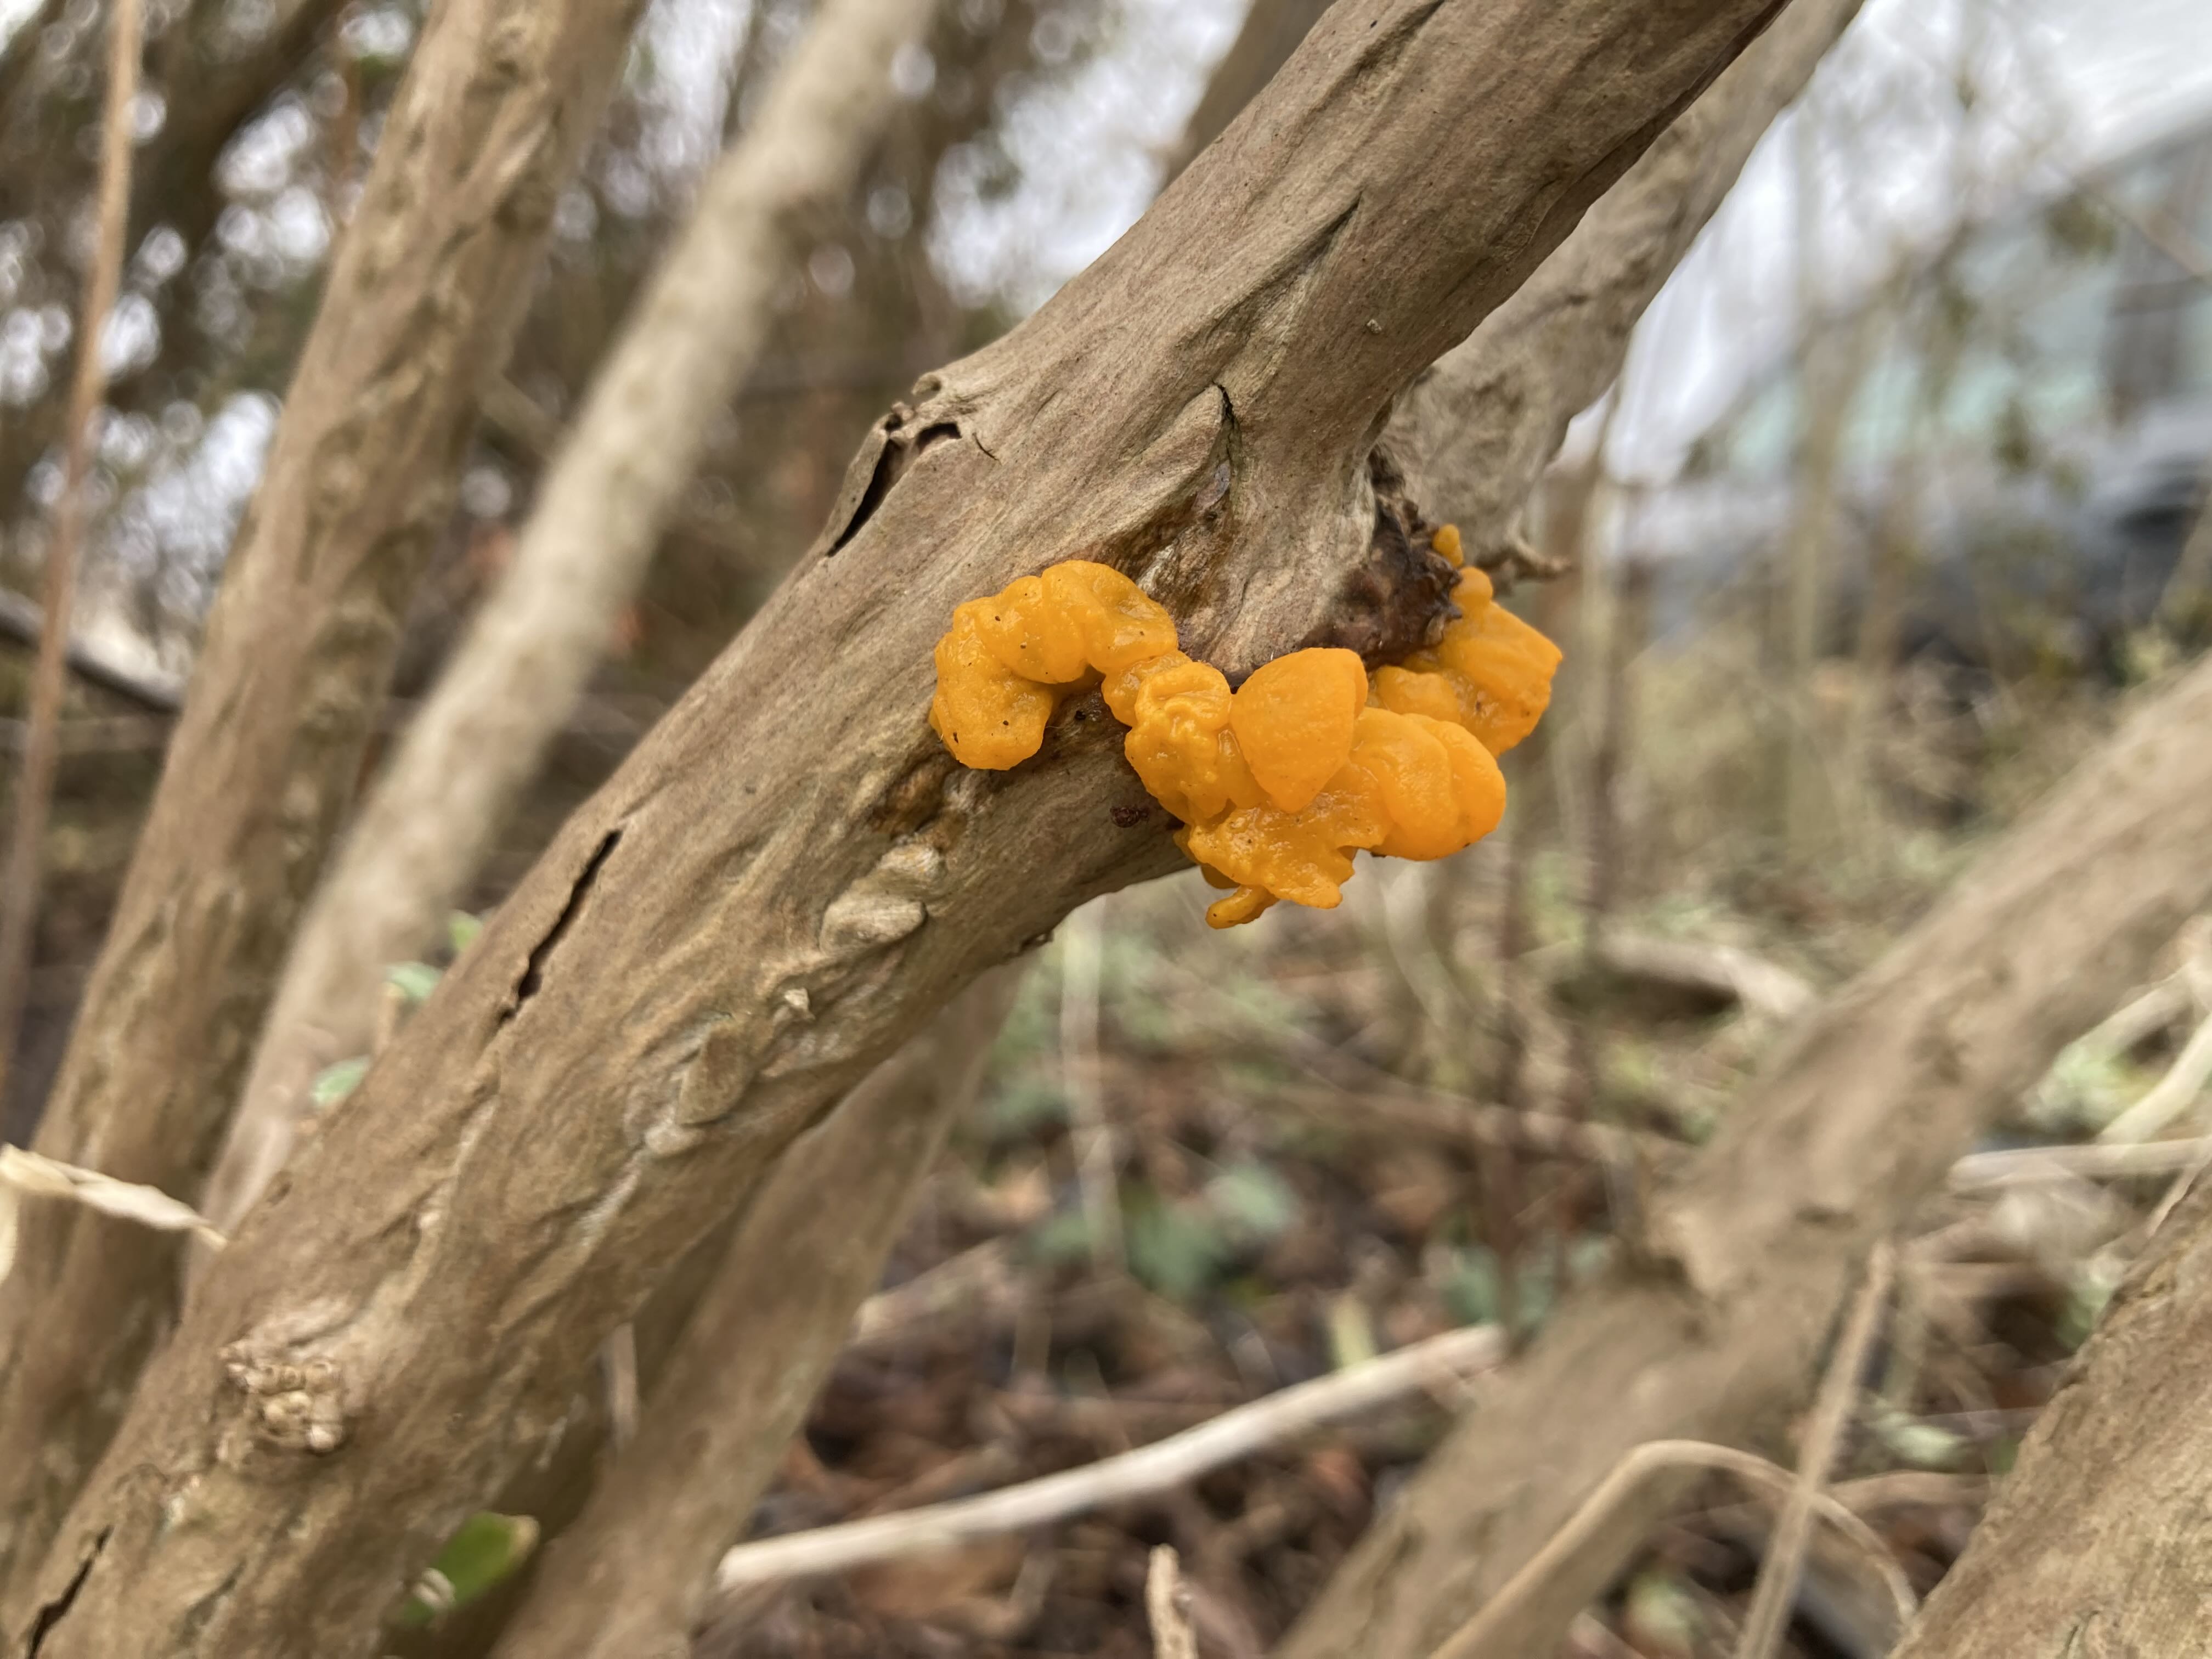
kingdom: Fungi
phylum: Basidiomycota
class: Tremellomycetes
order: Tremellales
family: Tremellaceae
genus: Tremella
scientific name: Tremella mesenterica
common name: gul bævresvamp
